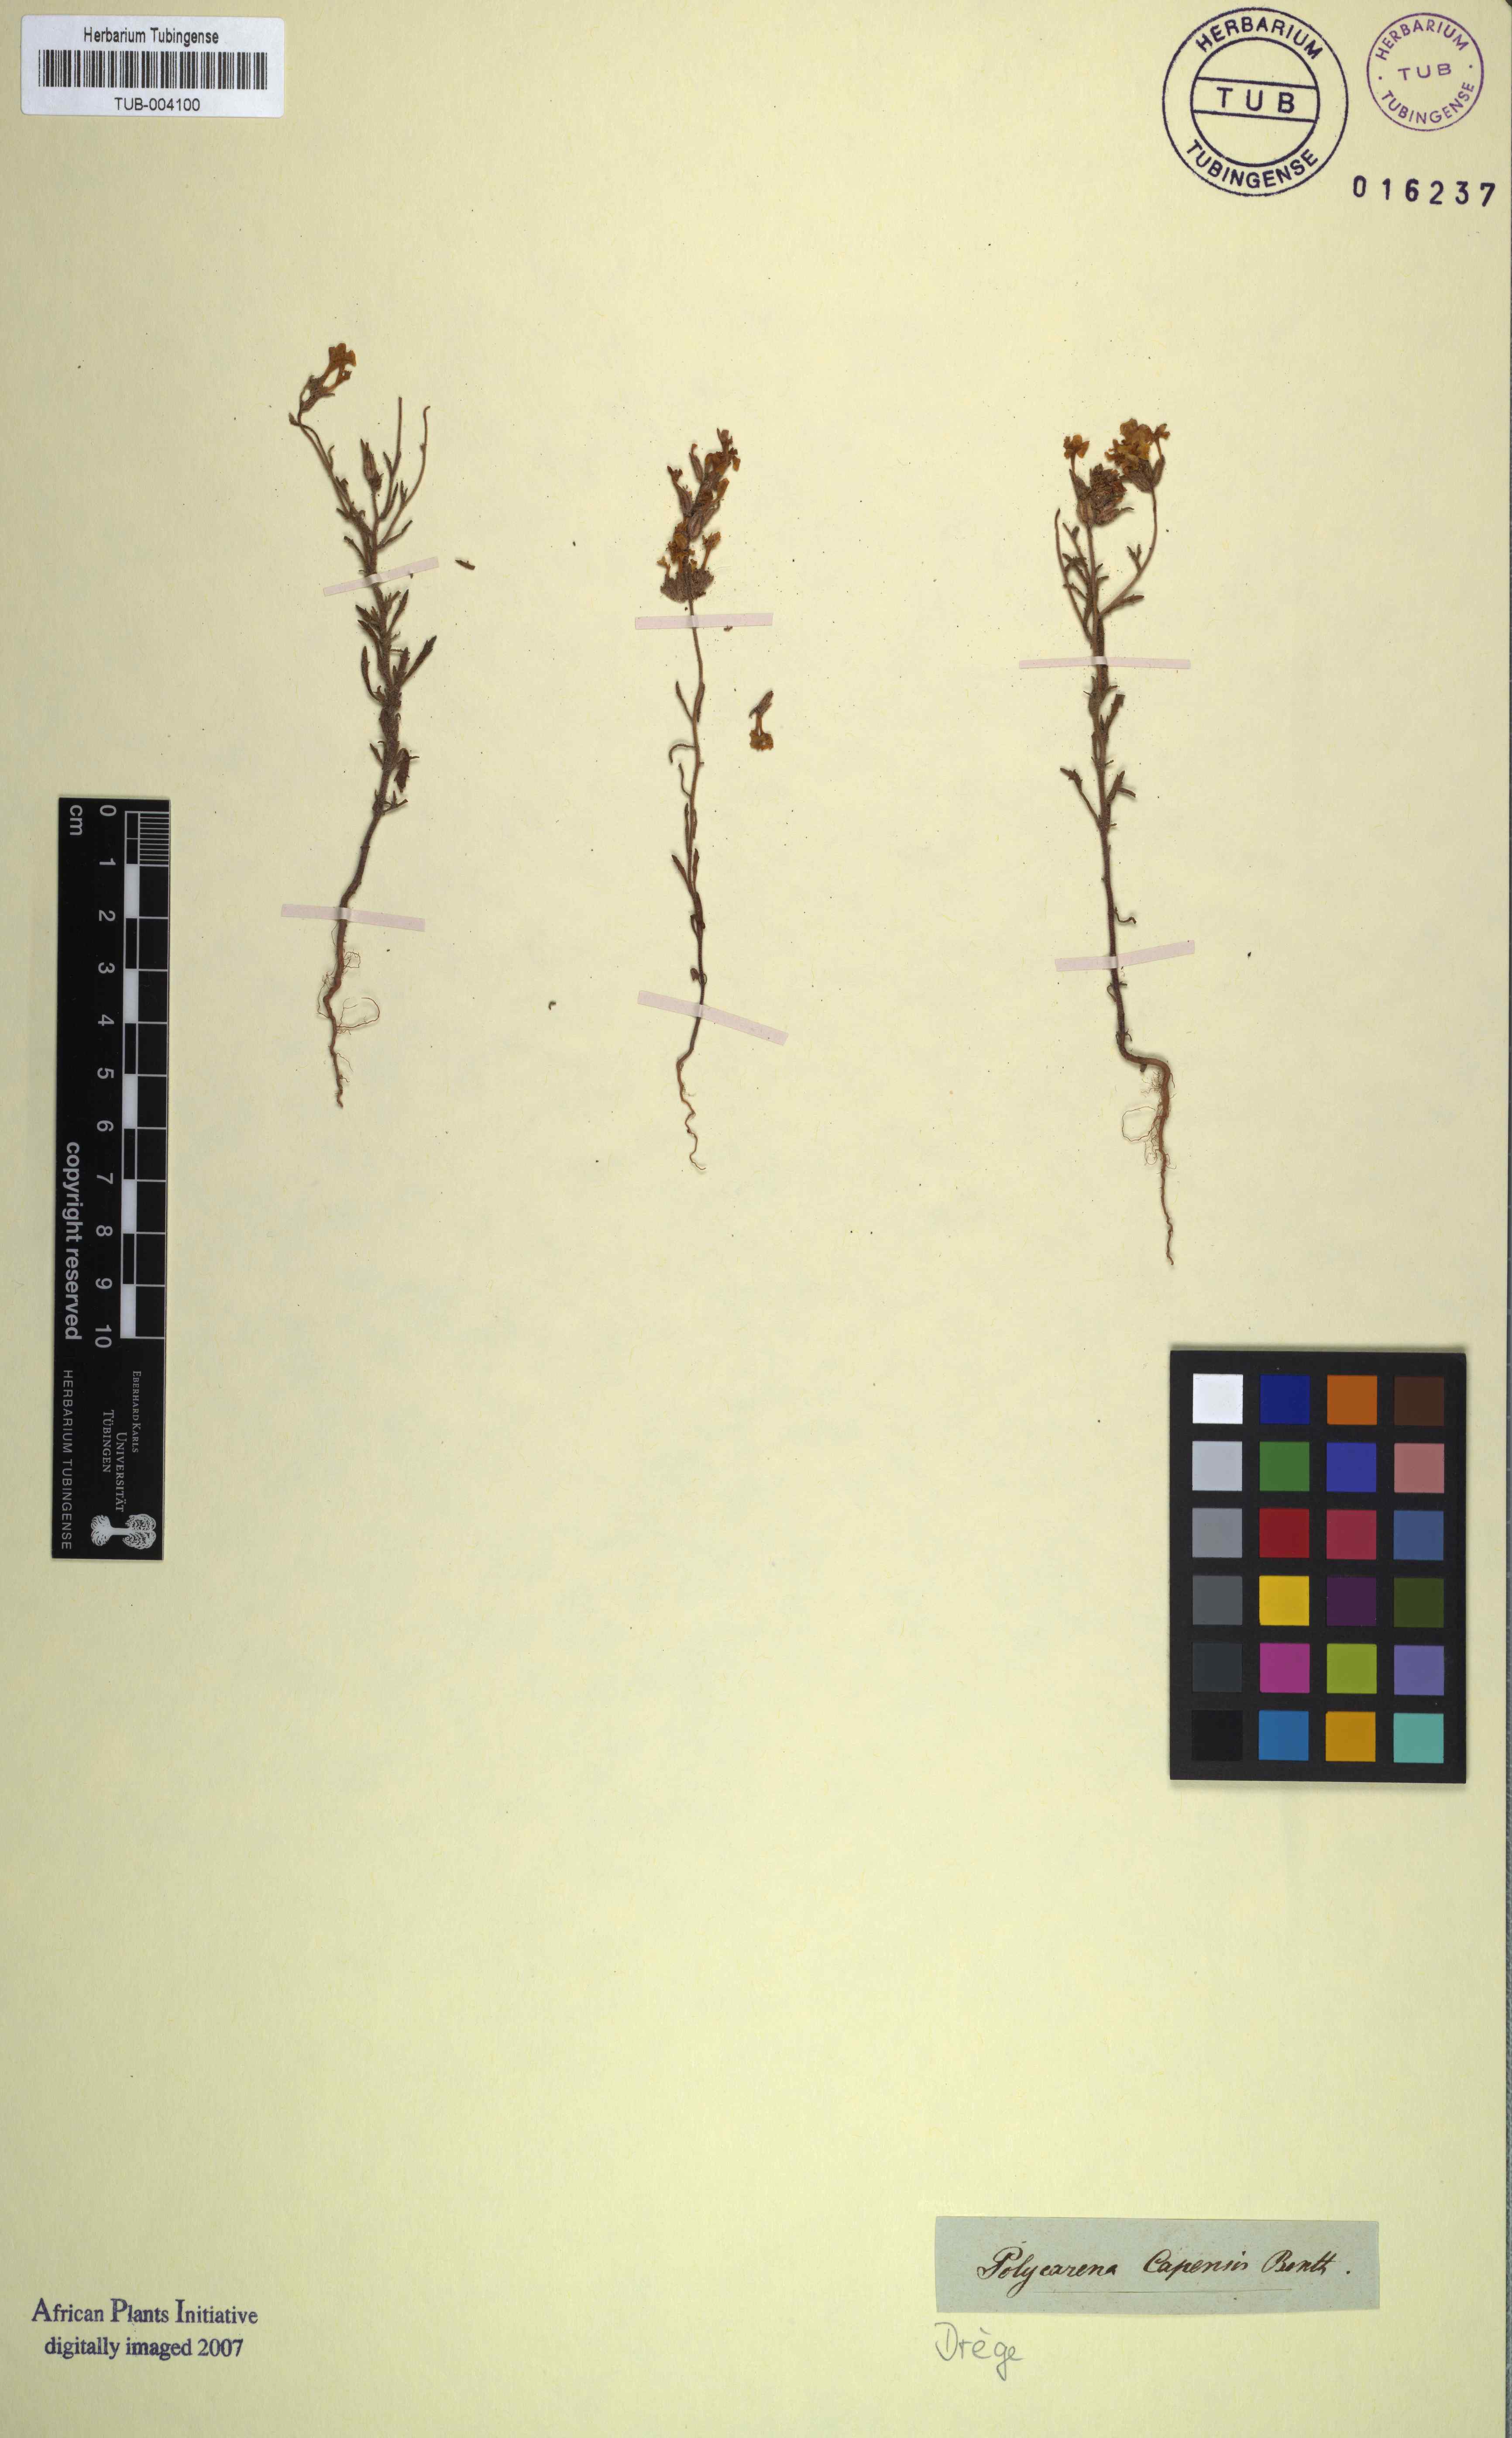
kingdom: Plantae
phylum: Tracheophyta
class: Magnoliopsida
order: Lamiales
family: Scrophulariaceae
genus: Polycarena
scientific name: Polycarena capensis
